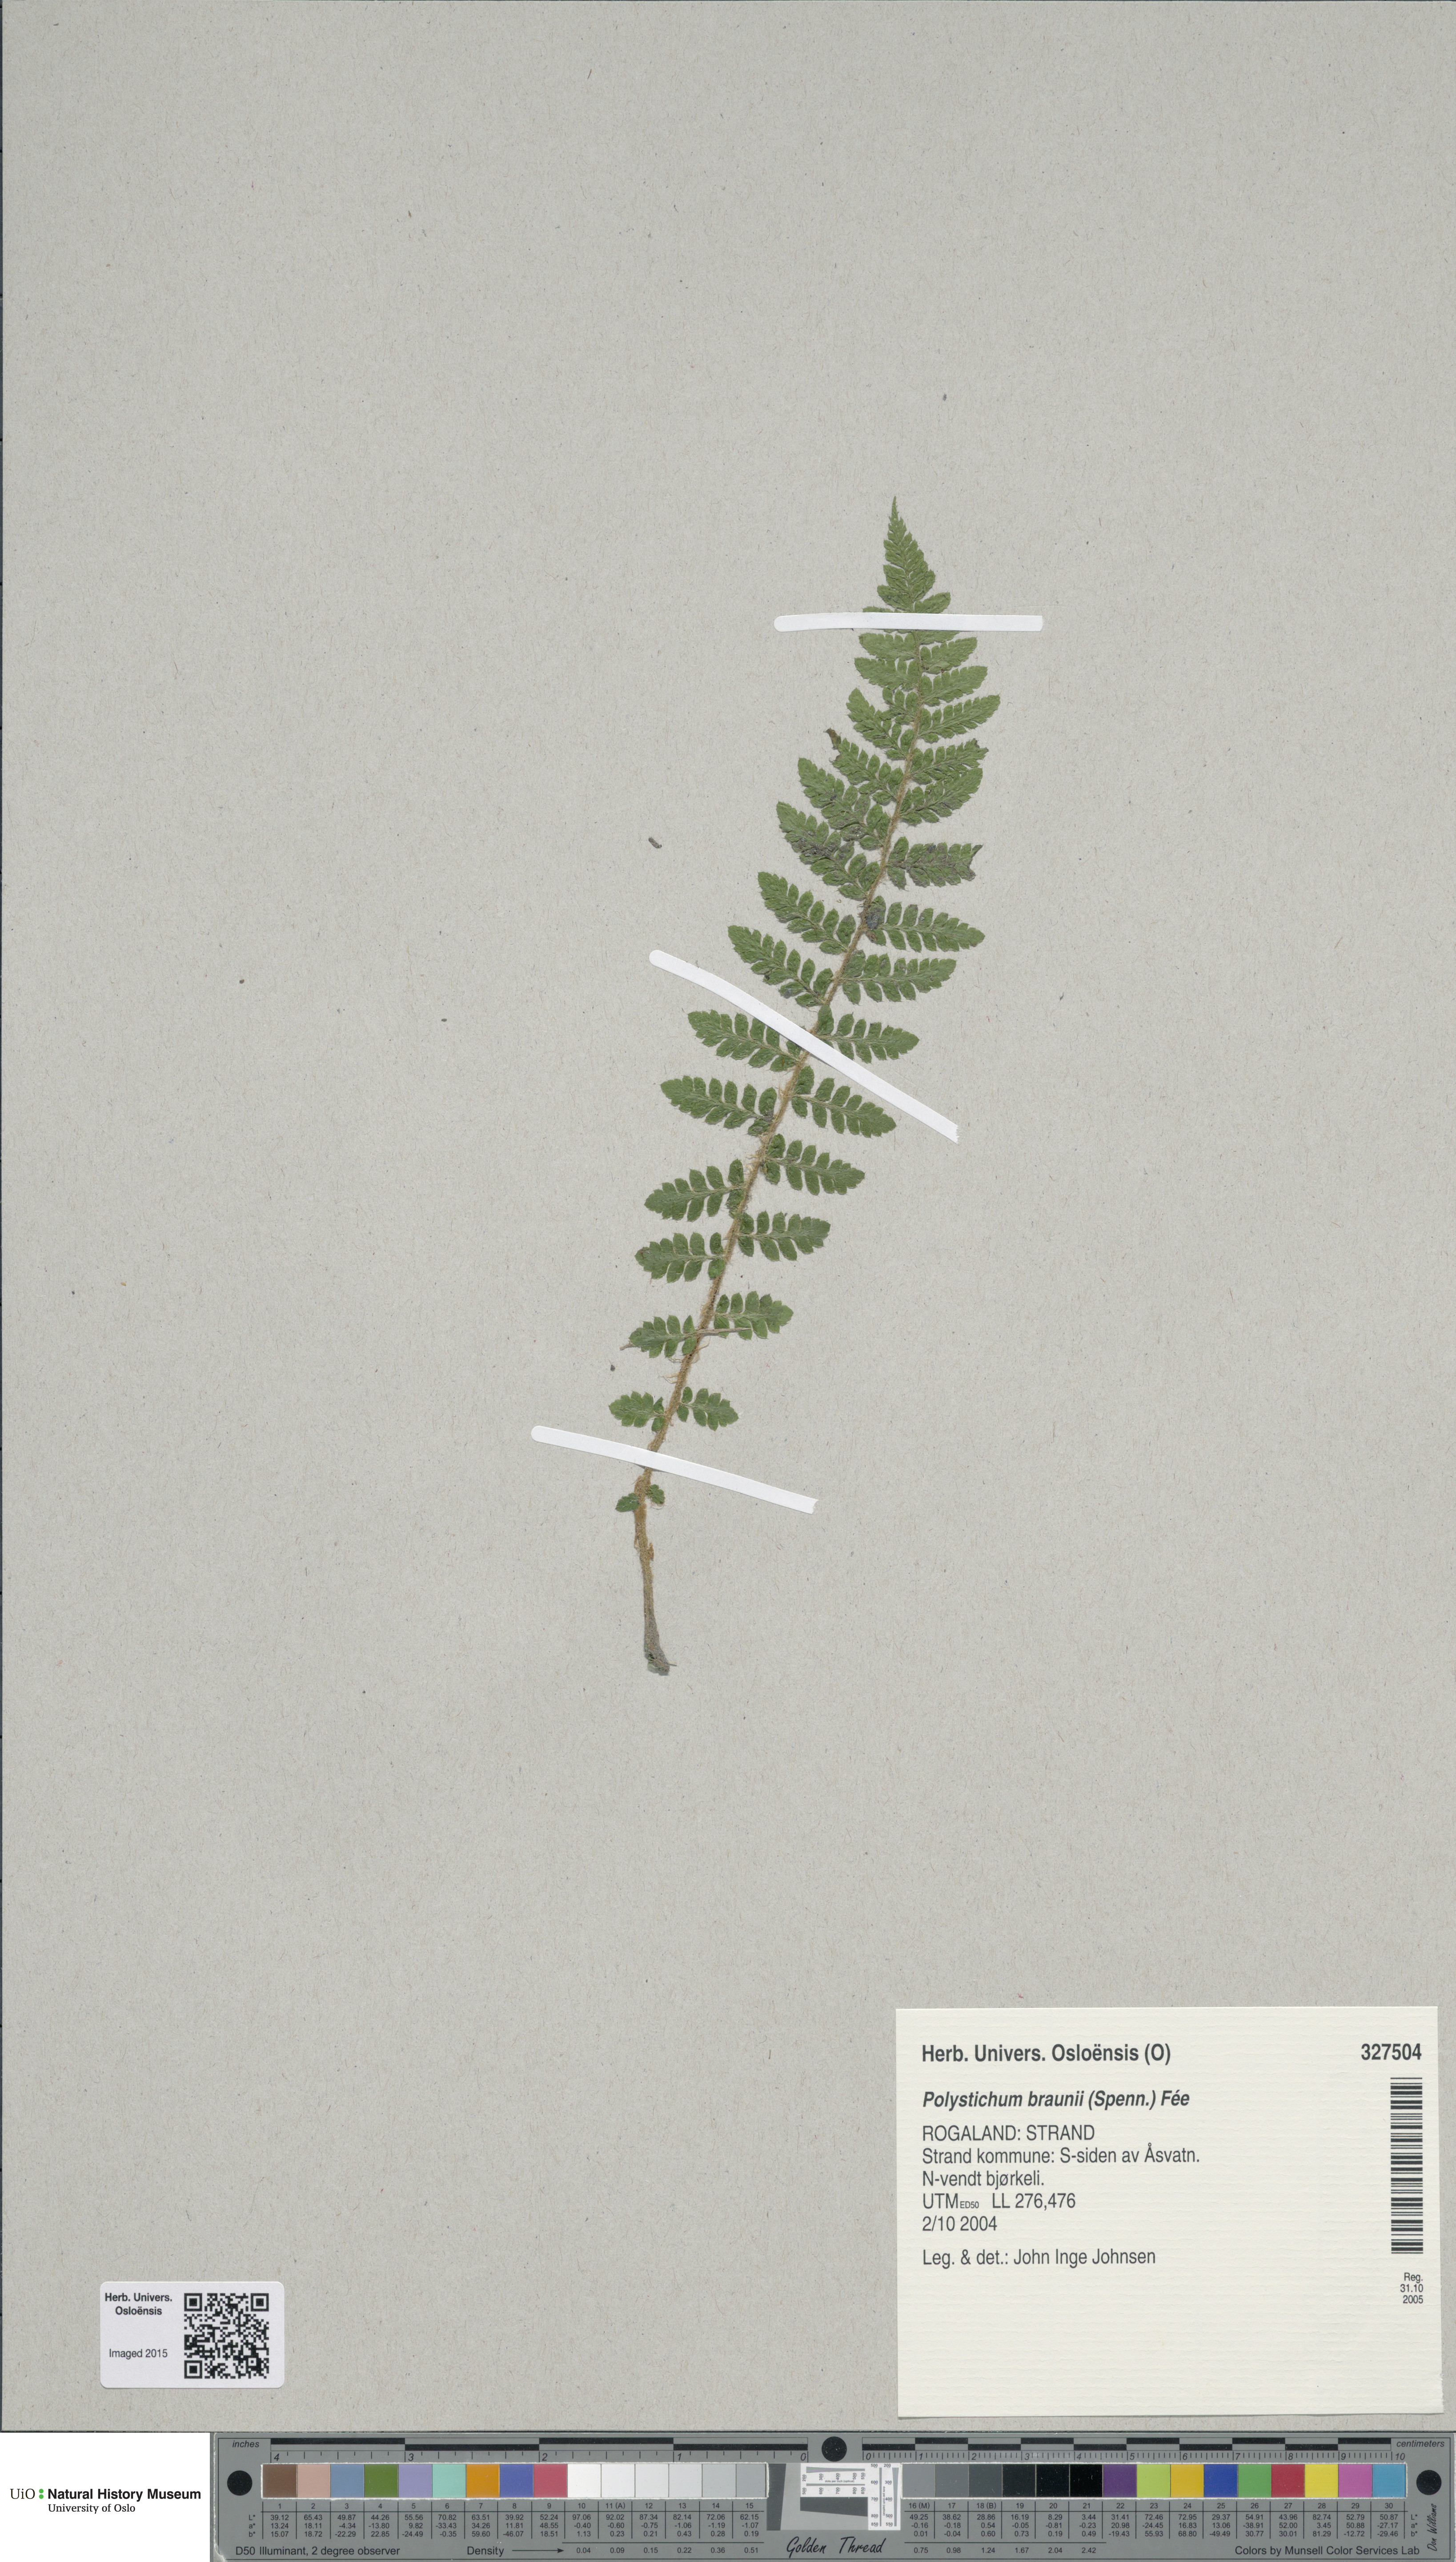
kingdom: Plantae
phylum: Tracheophyta
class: Polypodiopsida
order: Polypodiales
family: Dryopteridaceae
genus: Polystichum
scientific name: Polystichum braunii
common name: Braun's holly fern
